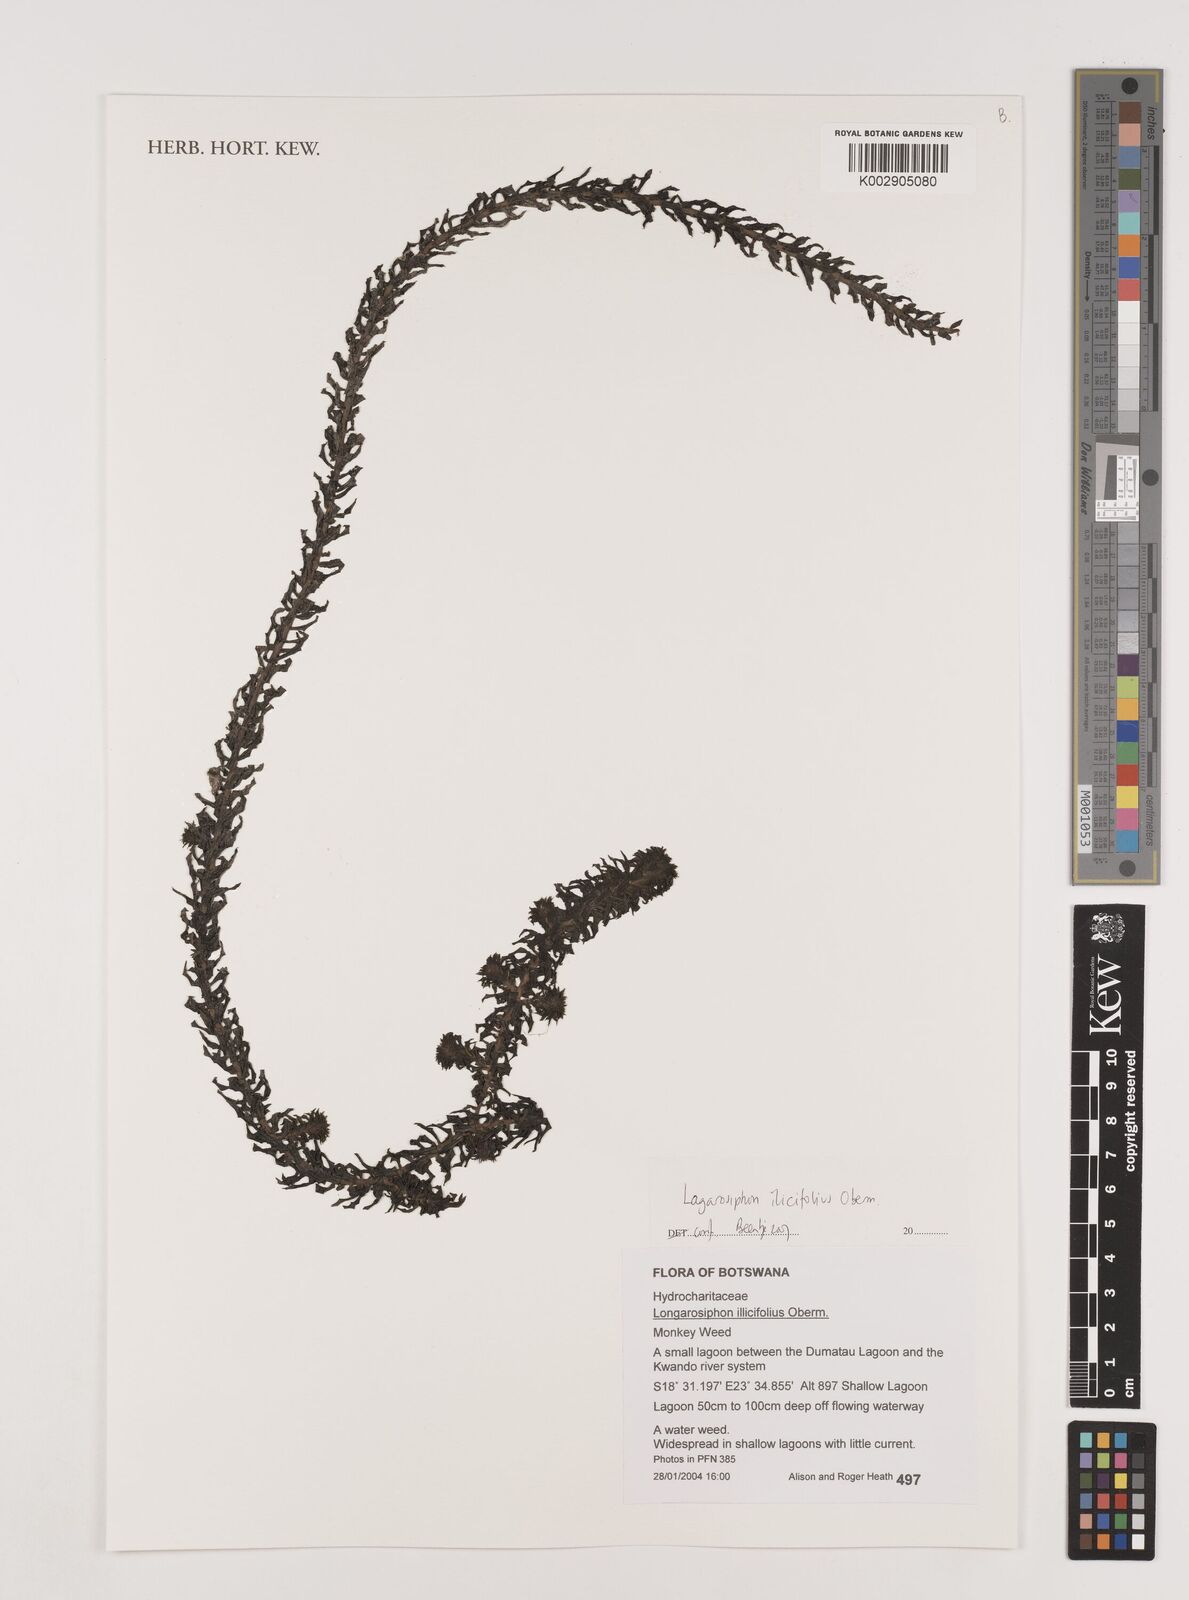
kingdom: Plantae
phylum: Tracheophyta
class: Liliopsida
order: Alismatales
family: Hydrocharitaceae
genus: Lagarosiphon
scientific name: Lagarosiphon ilicifolius
